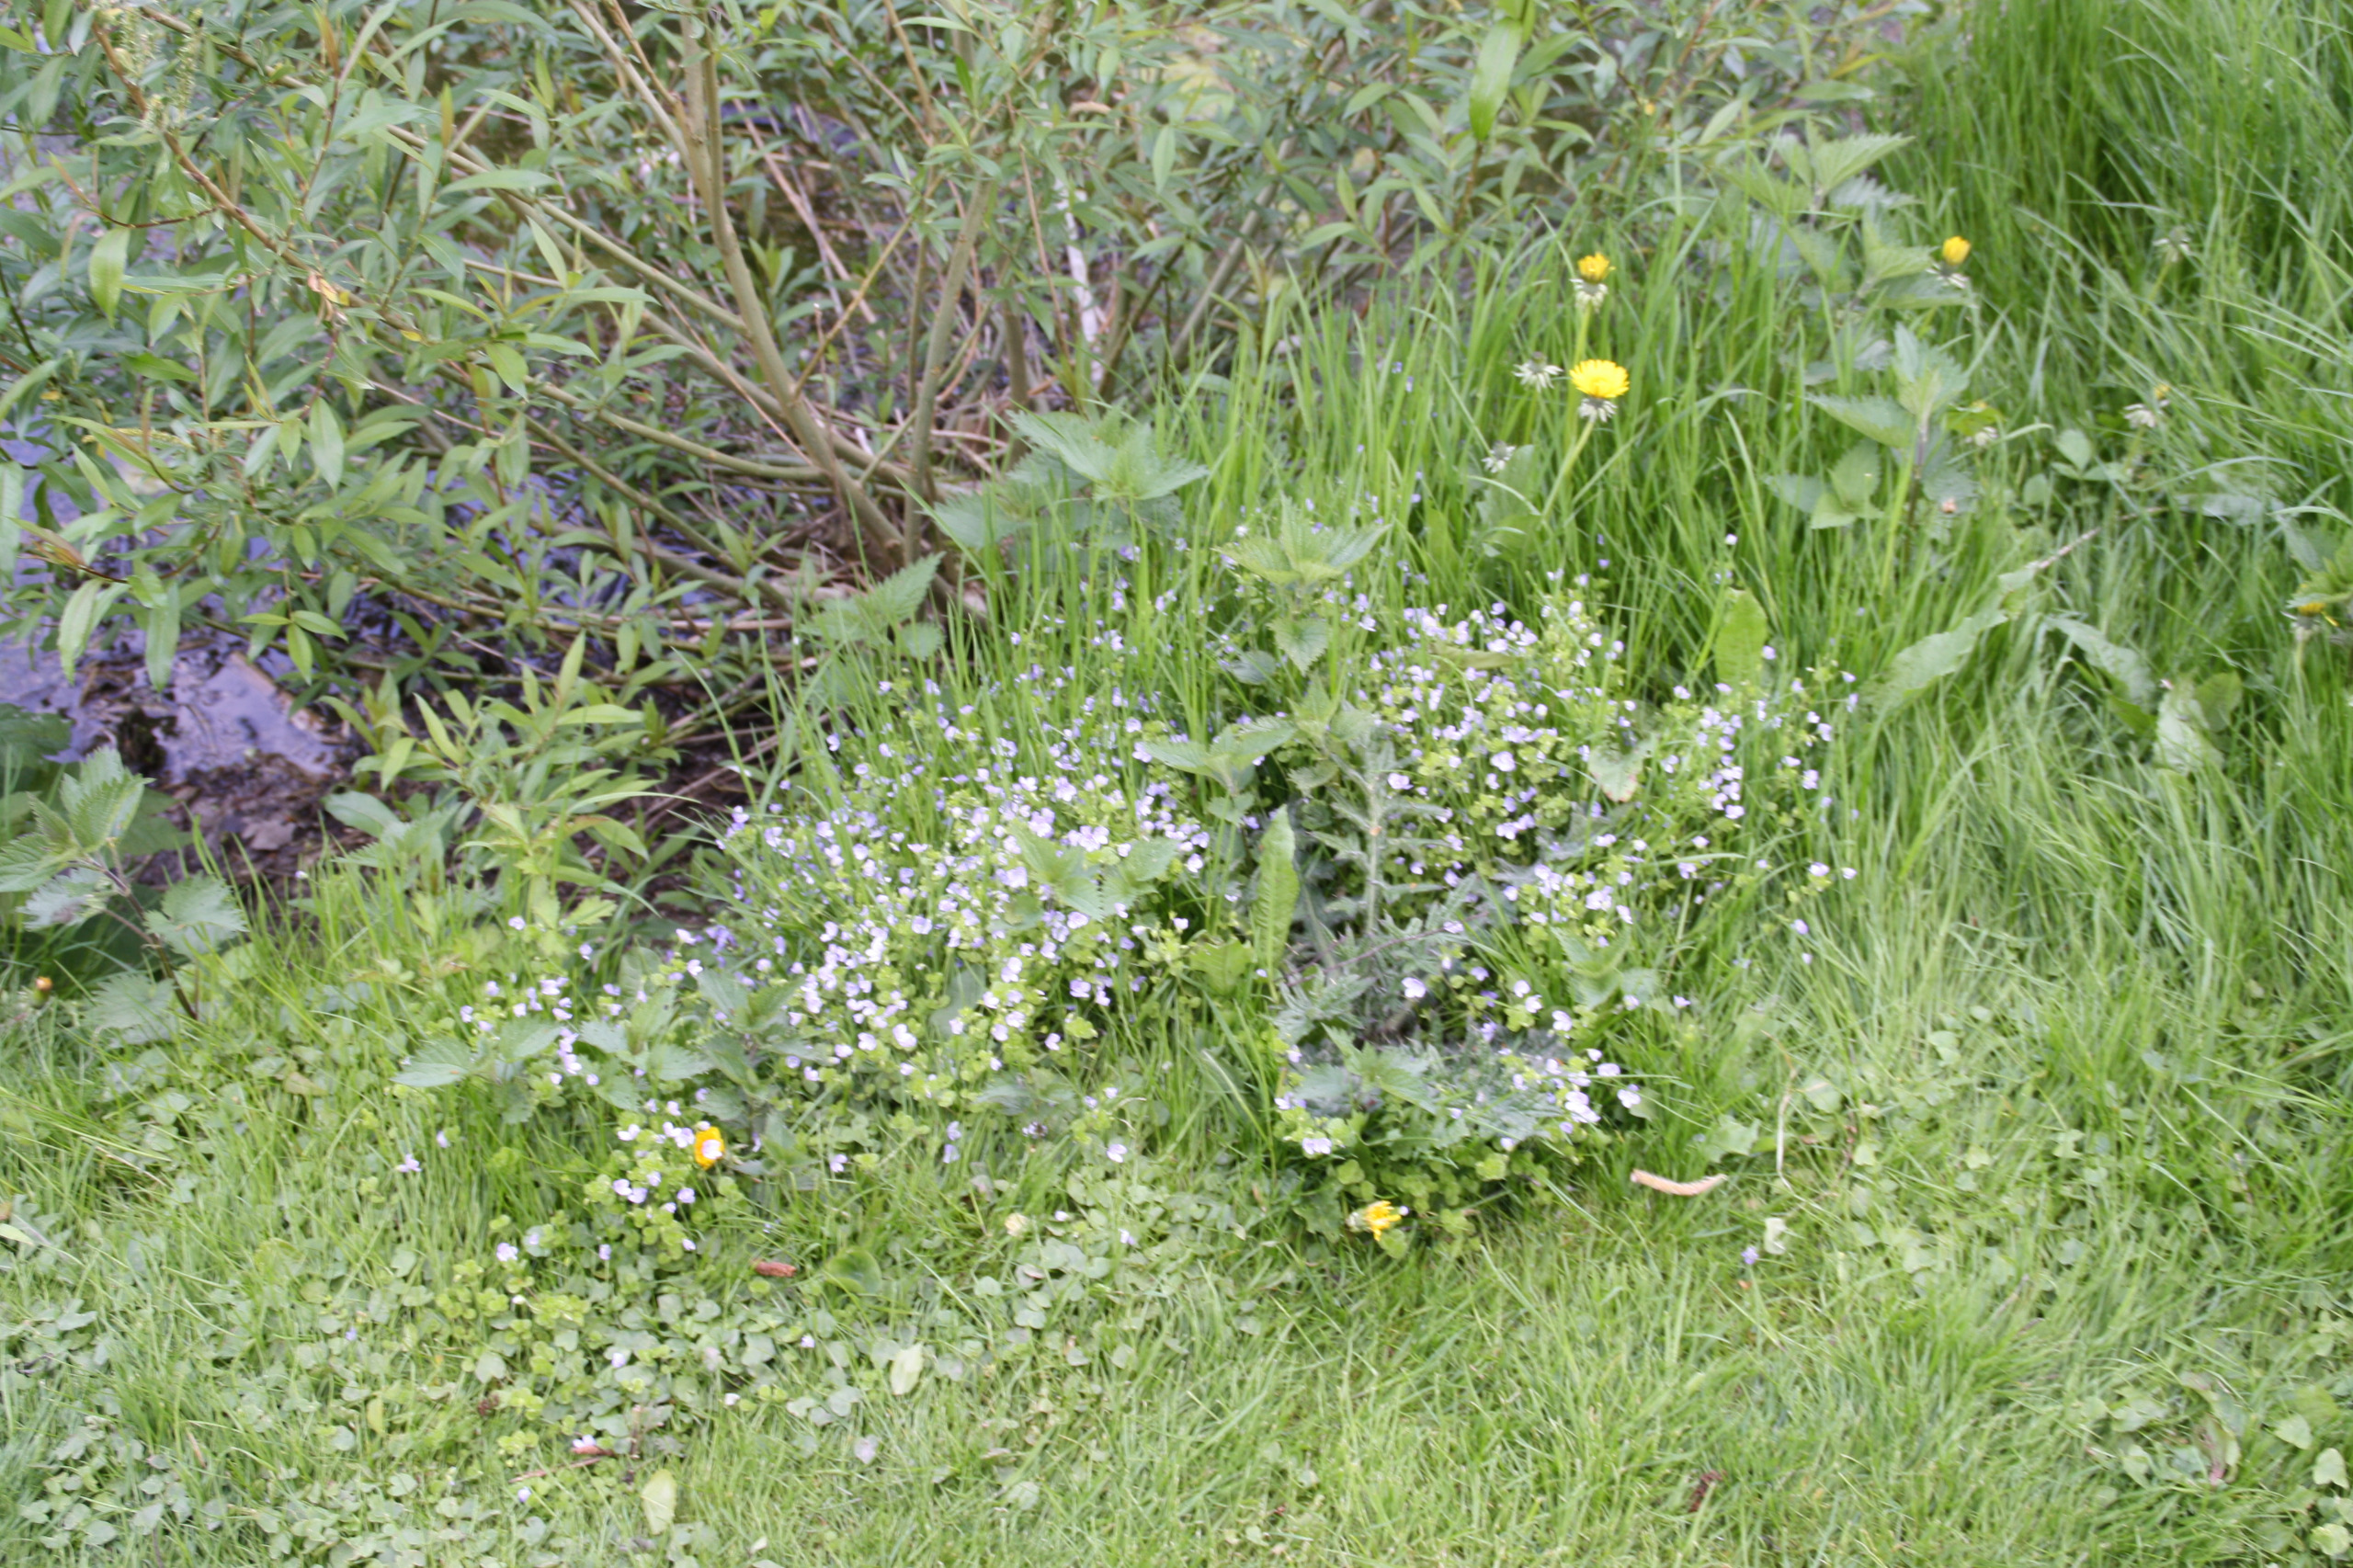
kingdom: Plantae
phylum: Tracheophyta
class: Magnoliopsida
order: Lamiales
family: Plantaginaceae
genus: Veronica
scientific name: Veronica filiformis
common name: Tråd-ærenpris
